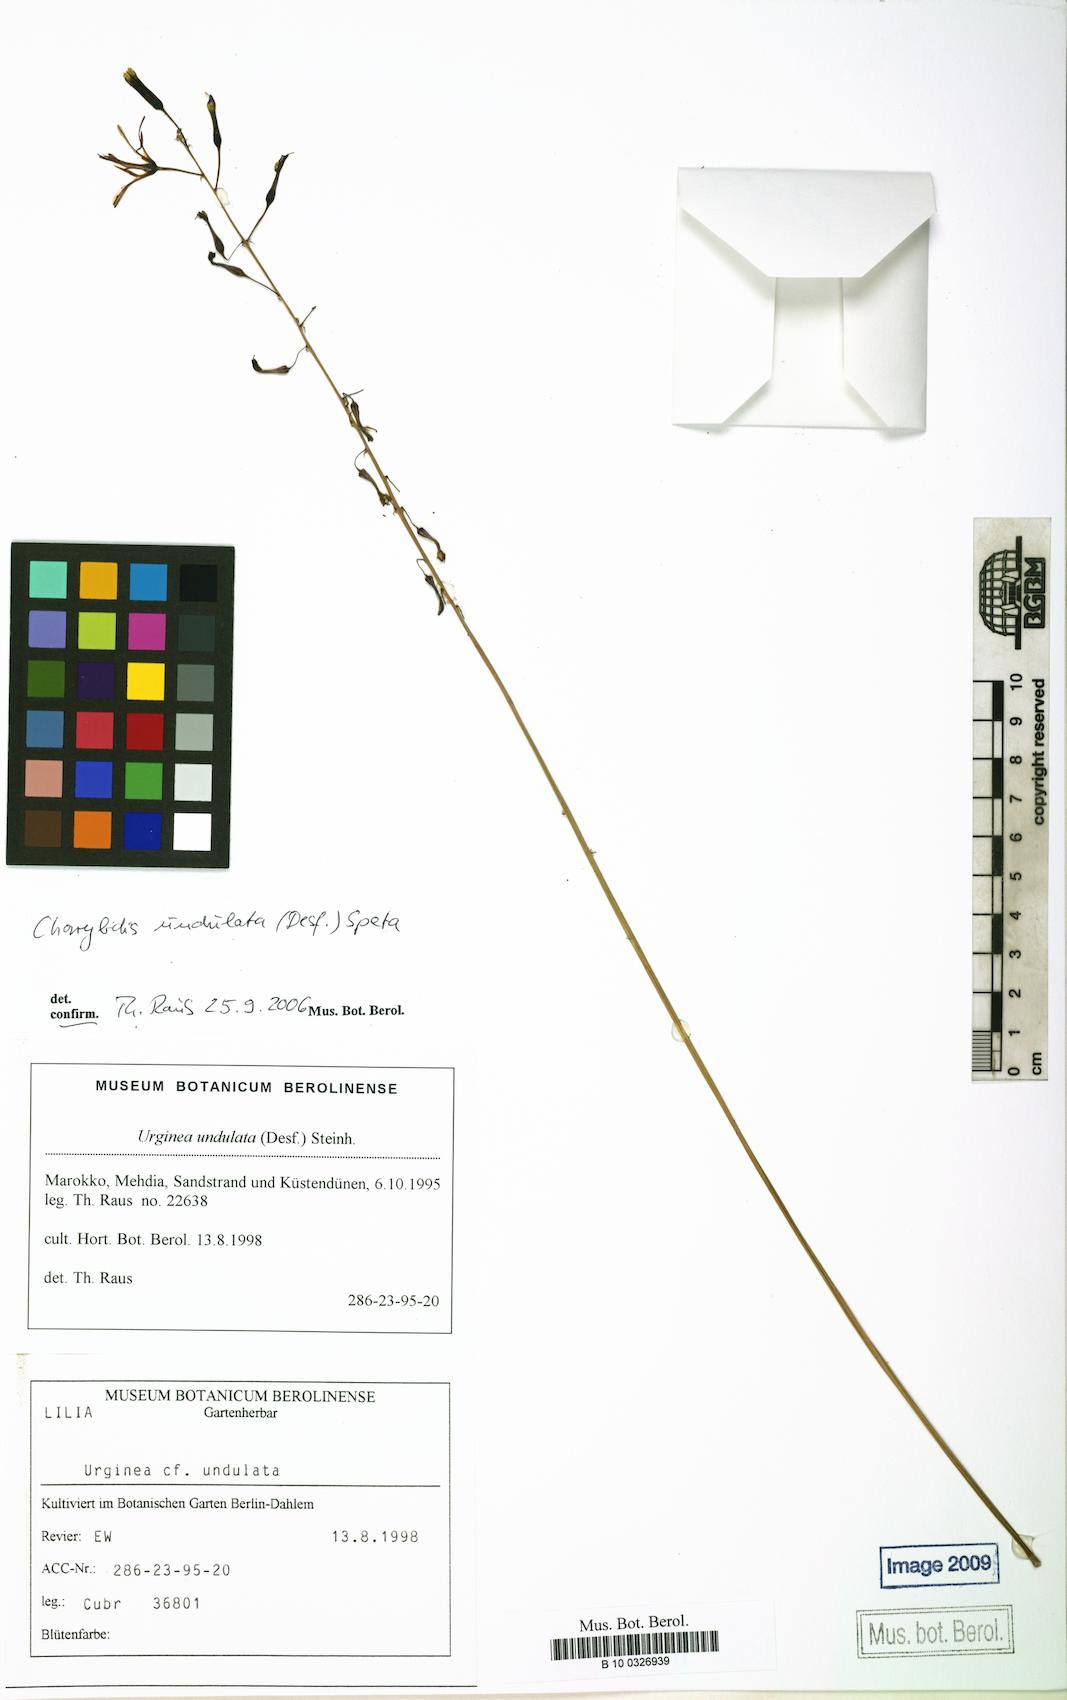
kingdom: Plantae
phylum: Tracheophyta
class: Liliopsida
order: Asparagales
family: Asparagaceae
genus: Drimia
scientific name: Drimia purpurascens
